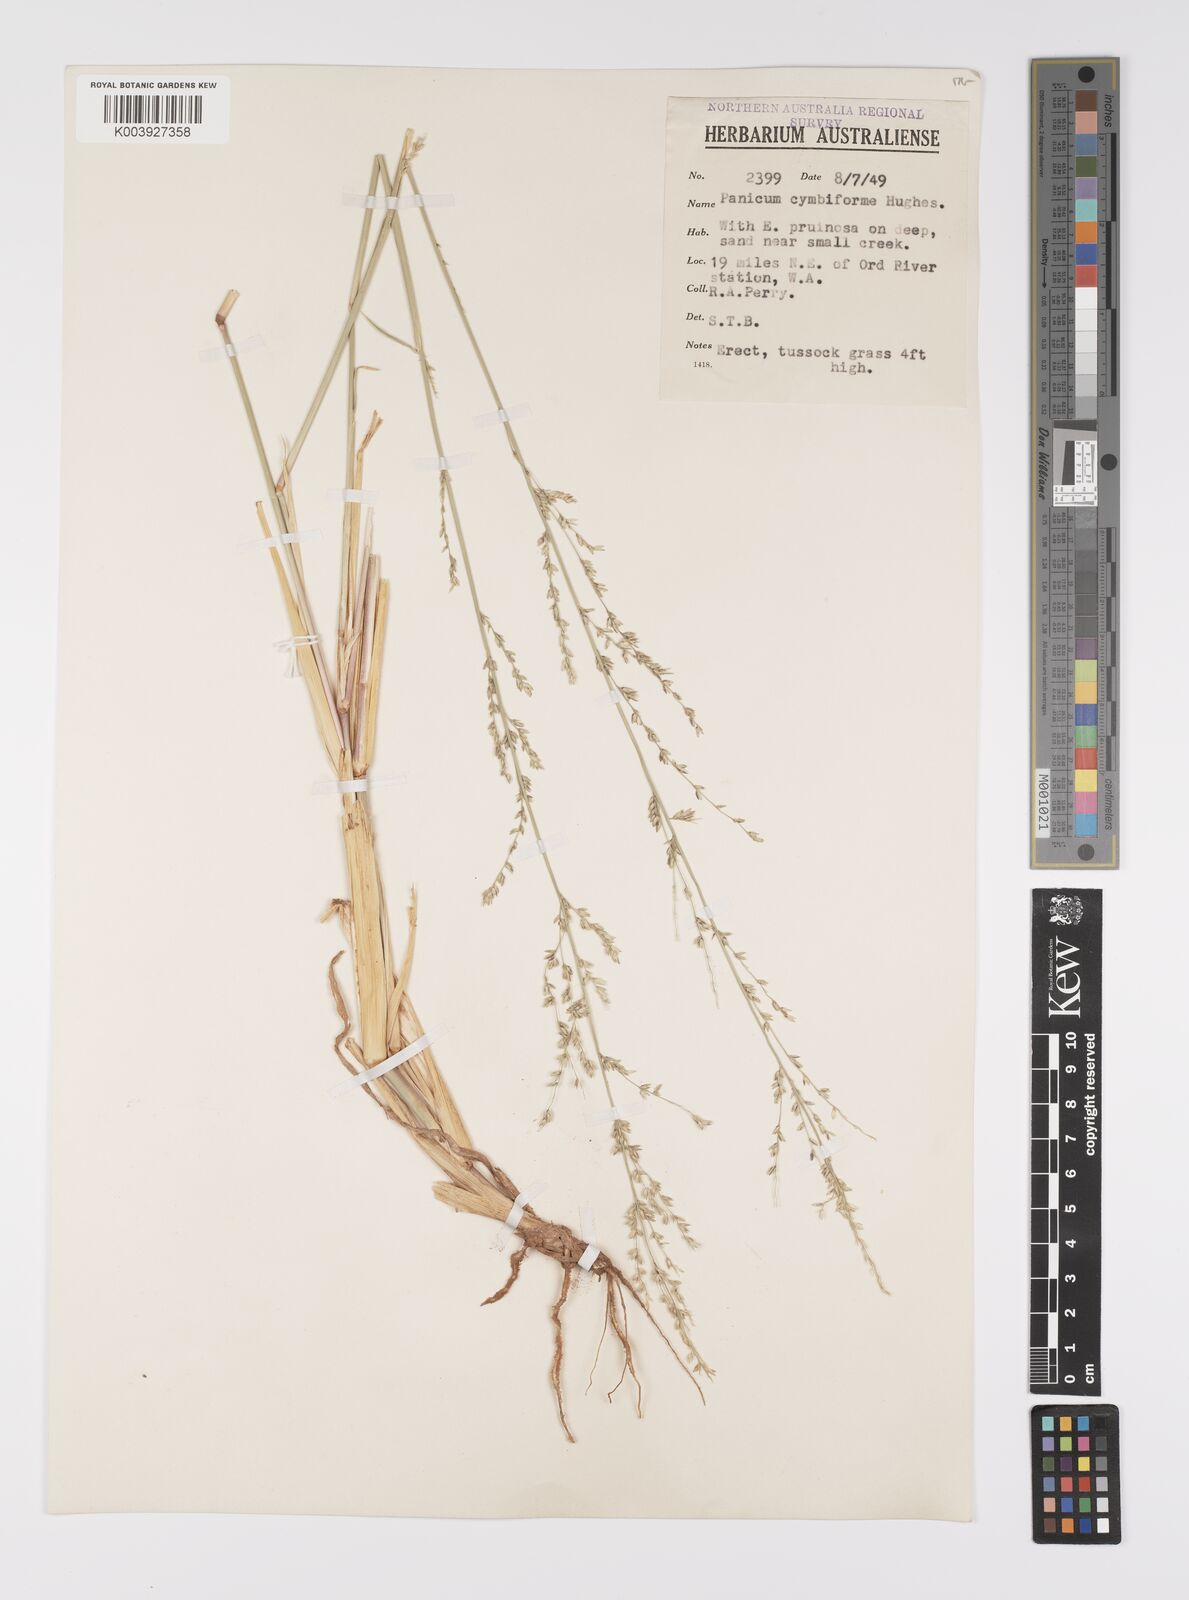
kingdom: Plantae
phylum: Tracheophyta
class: Liliopsida
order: Poales
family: Poaceae
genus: Whiteochloa
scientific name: Whiteochloa cymbiformis
